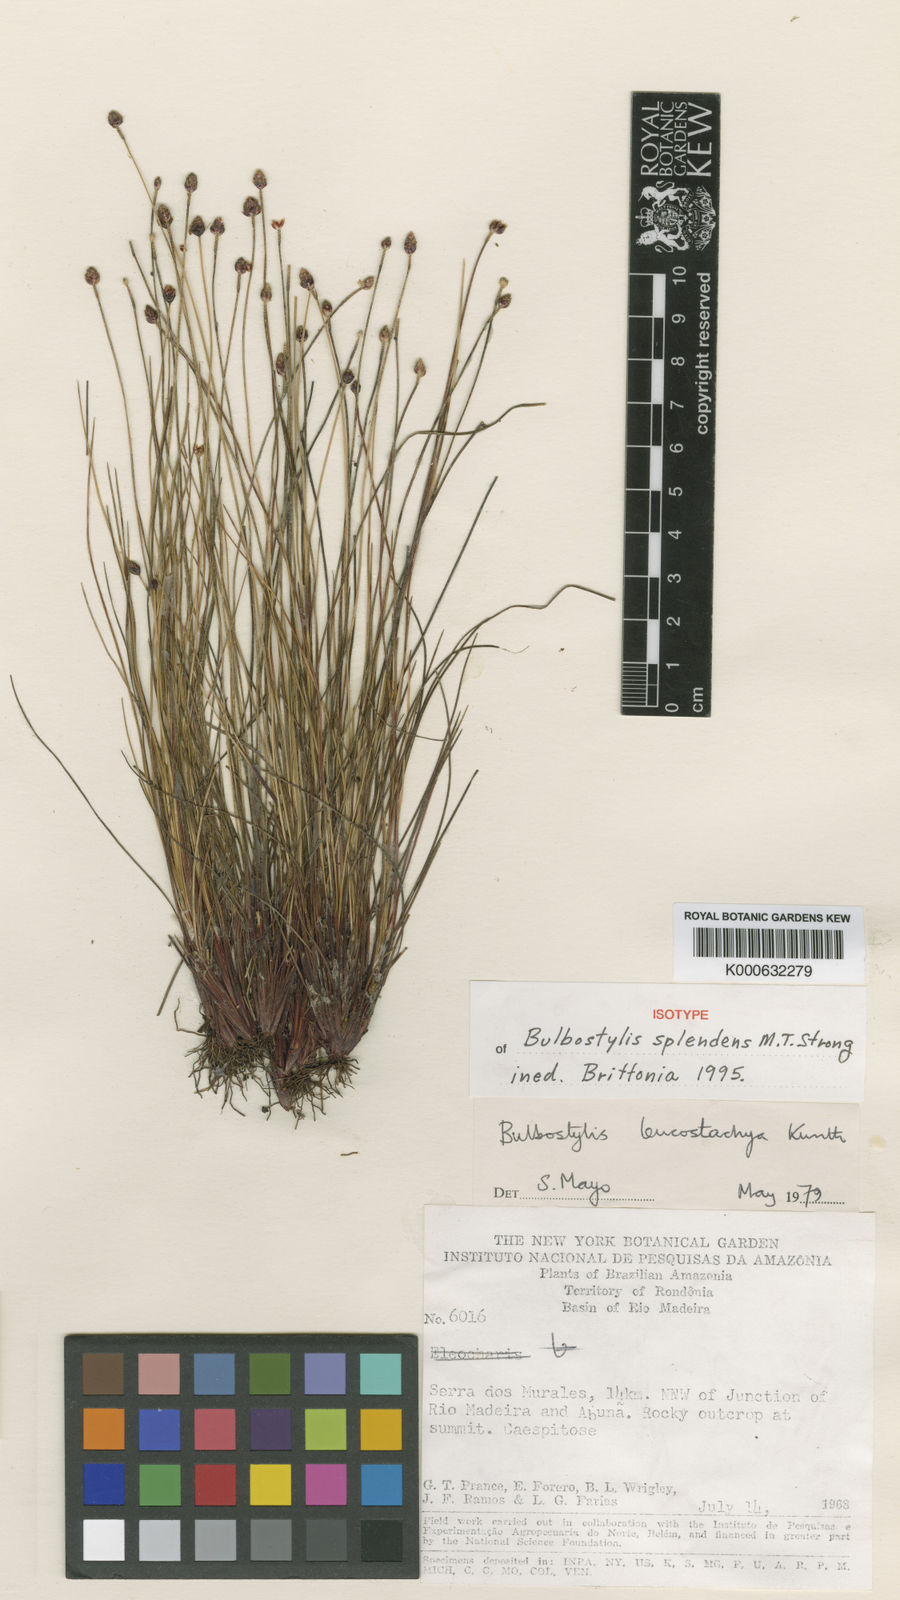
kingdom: Plantae
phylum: Tracheophyta
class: Liliopsida
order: Poales
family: Cyperaceae
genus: Bulbostylis
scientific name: Bulbostylis splendens
